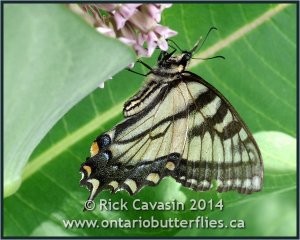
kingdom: Animalia
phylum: Arthropoda
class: Insecta
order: Lepidoptera
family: Papilionidae
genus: Papilio
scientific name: Papilio
